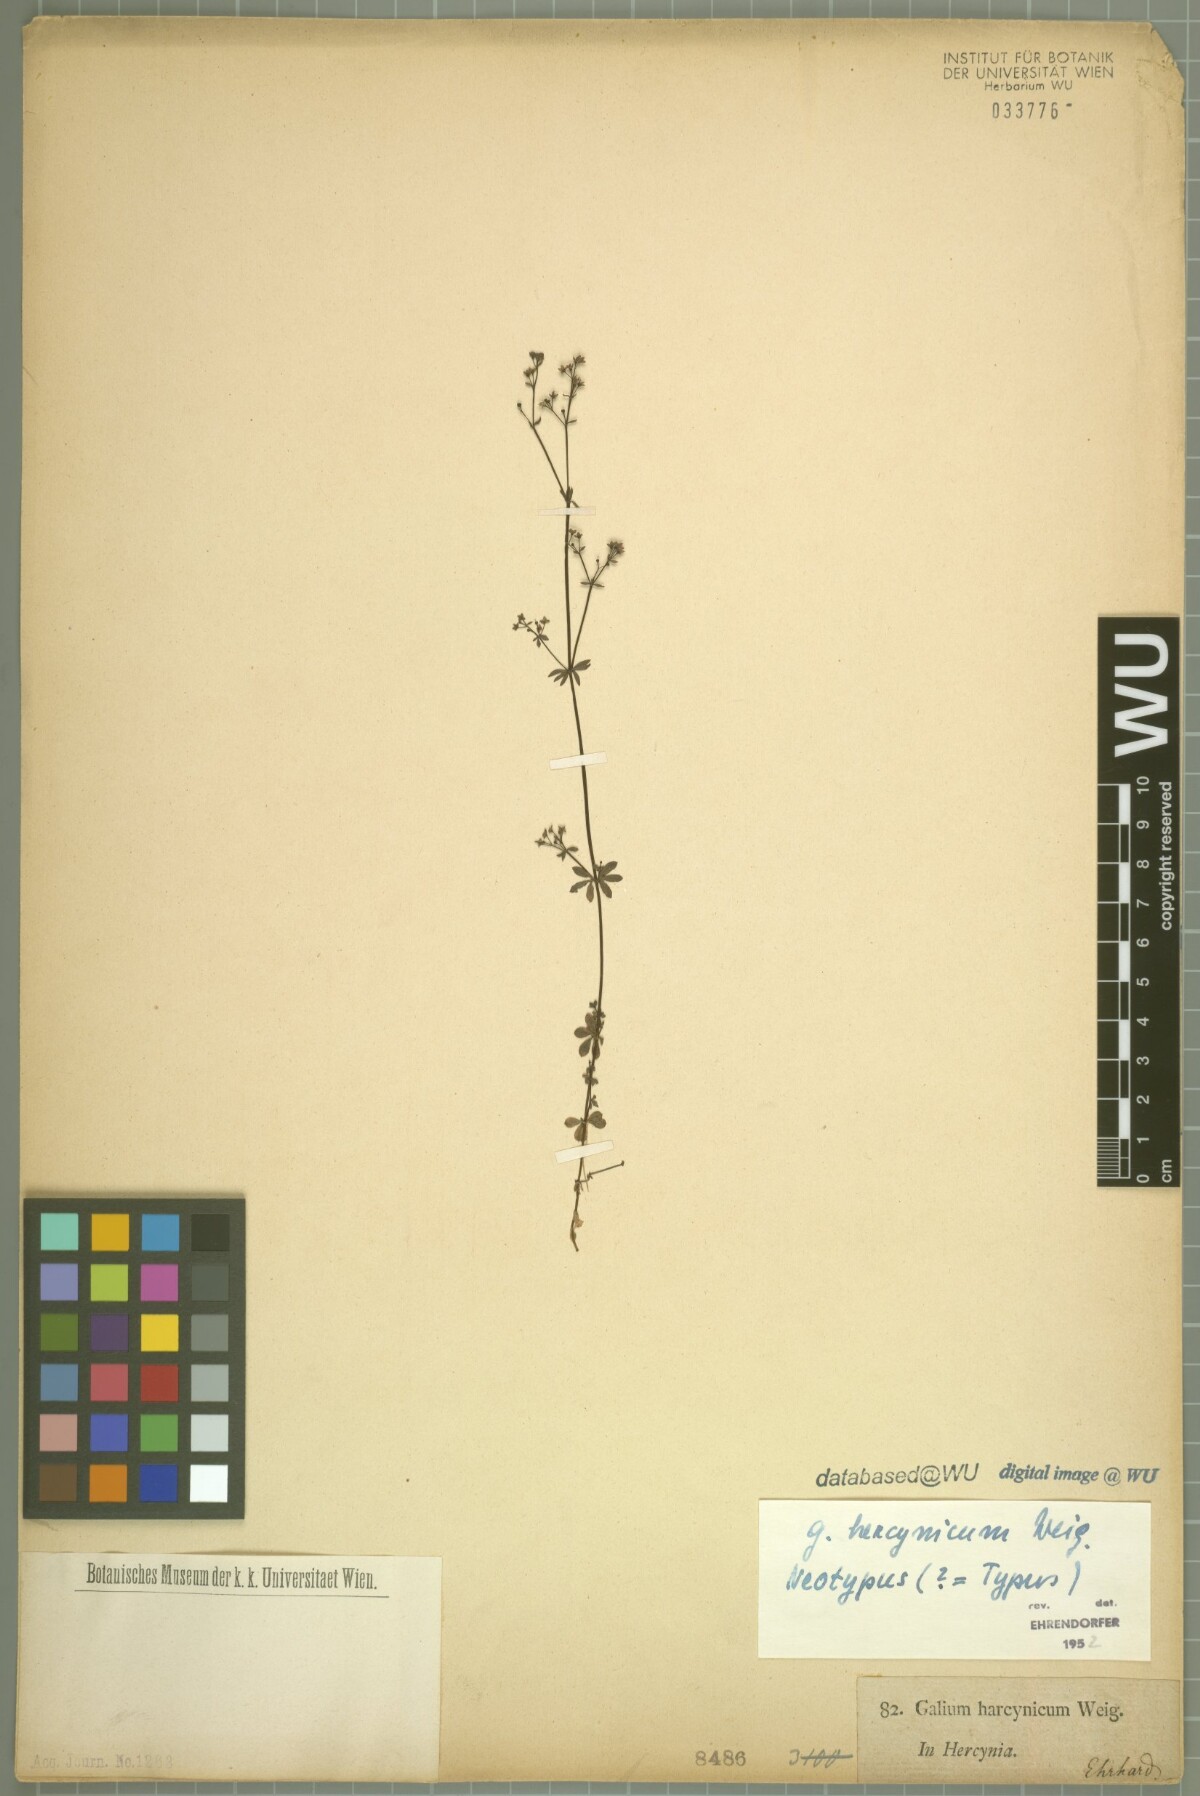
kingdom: Plantae
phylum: Tracheophyta
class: Magnoliopsida
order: Gentianales
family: Rubiaceae
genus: Galium
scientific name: Galium saxatile
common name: Heath bedstraw
